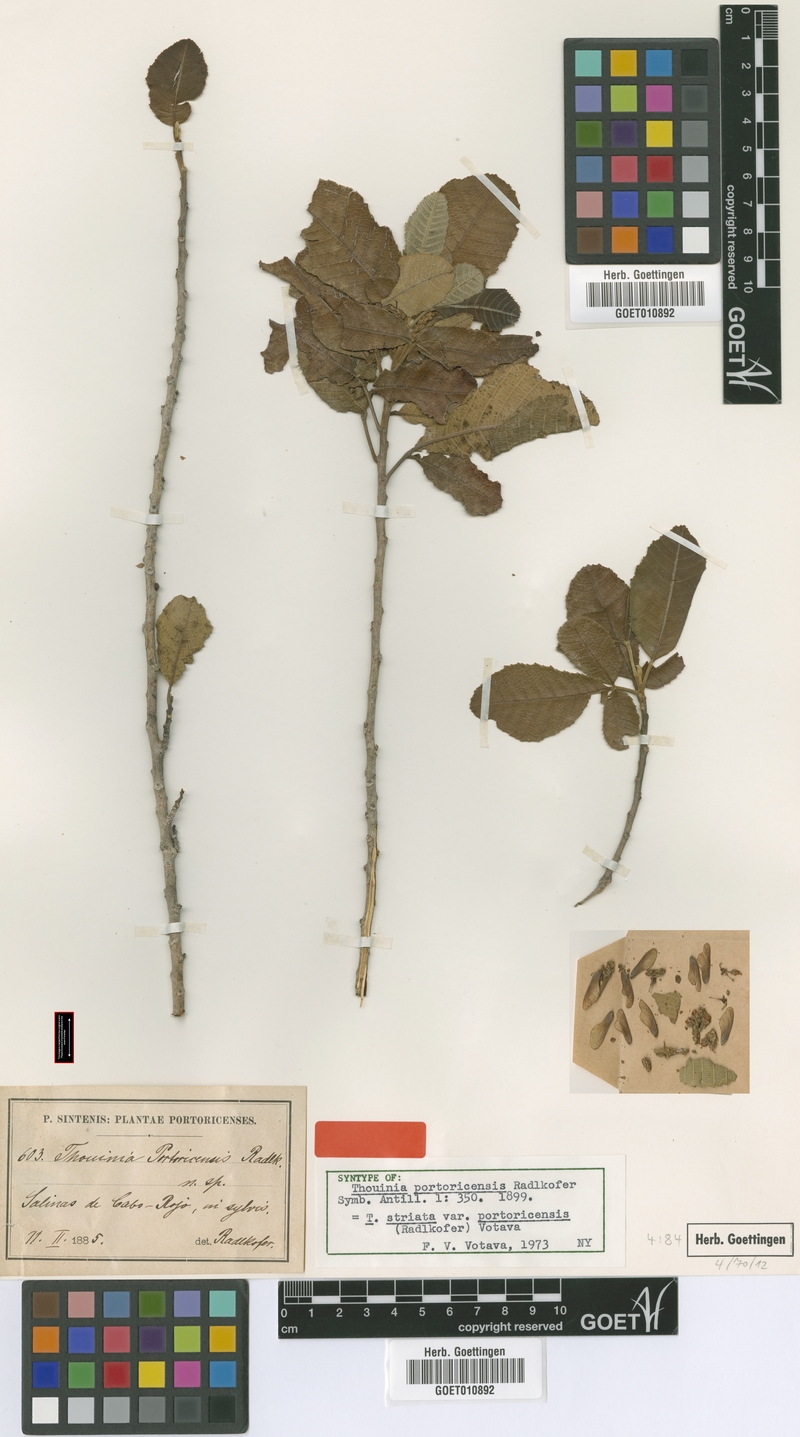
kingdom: Plantae
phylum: Tracheophyta
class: Magnoliopsida
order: Sapindales
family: Sapindaceae
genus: Thouinia
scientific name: Thouinia striata
